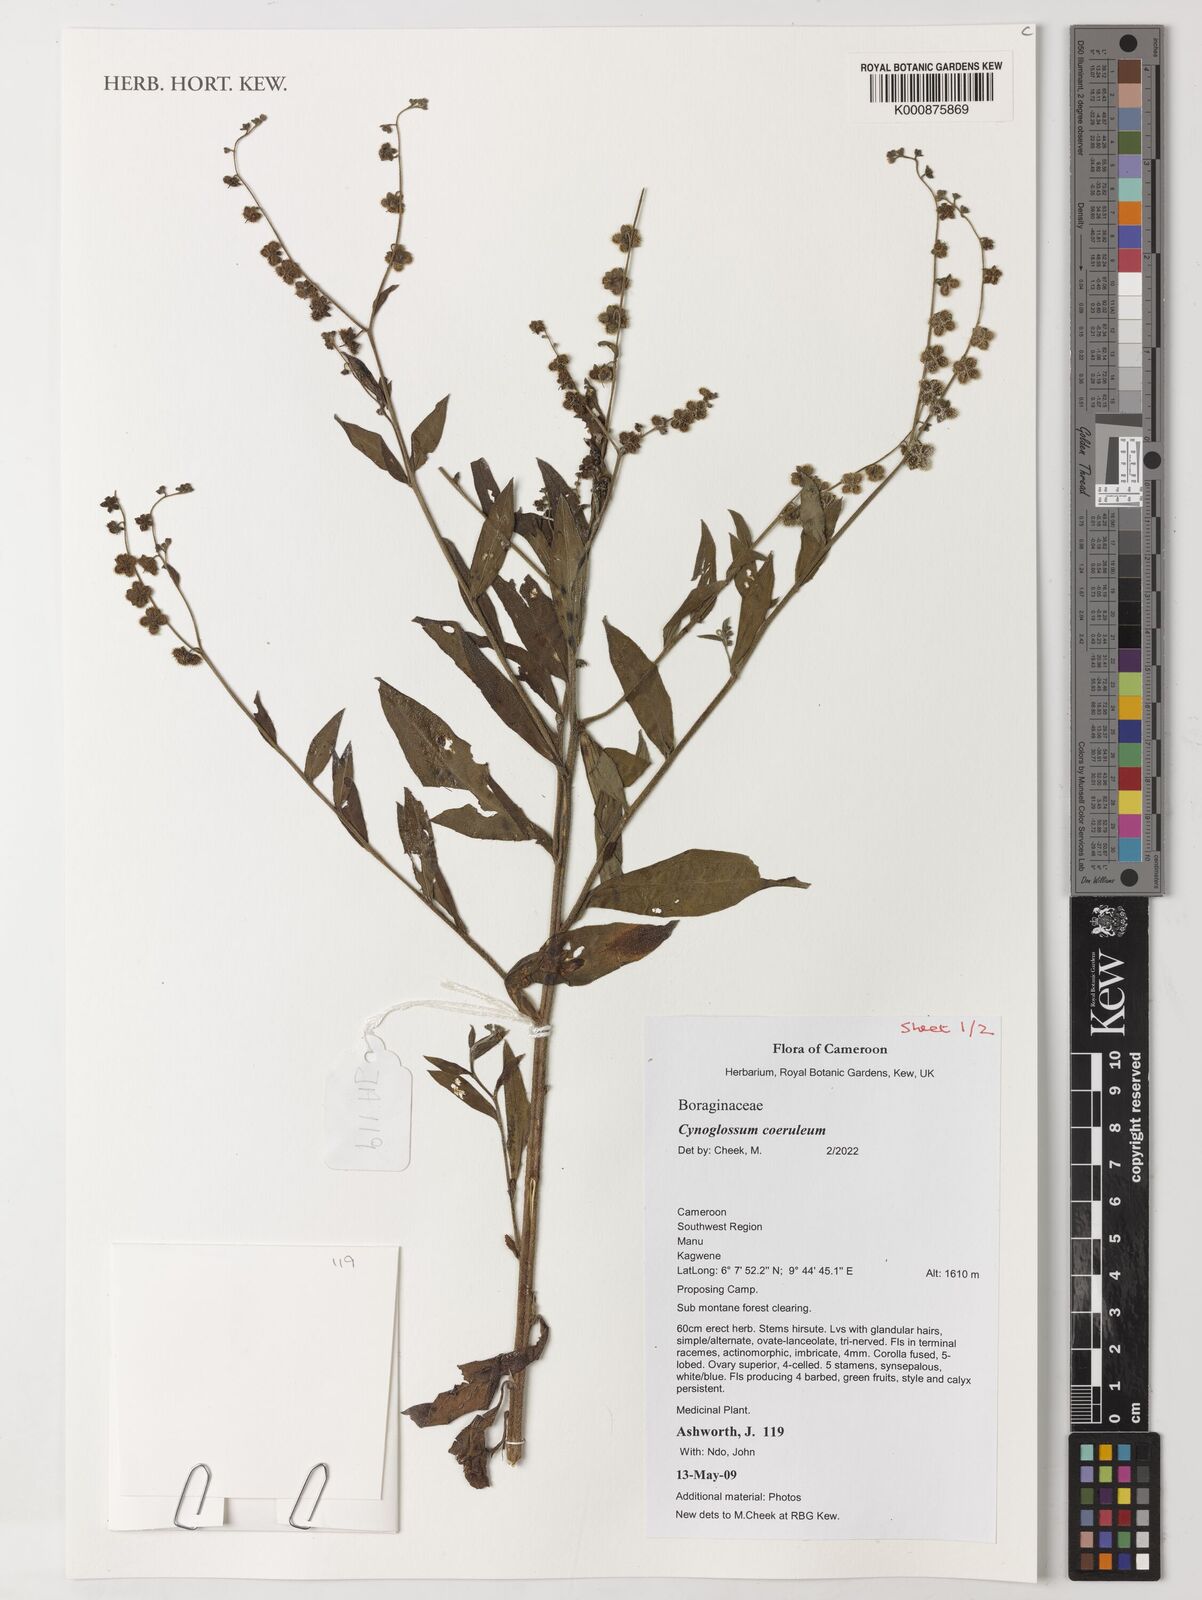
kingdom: Plantae
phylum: Tracheophyta
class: Magnoliopsida
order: Boraginales
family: Boraginaceae
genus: Paracynoglossum
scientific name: Paracynoglossum afrocaeruleum
